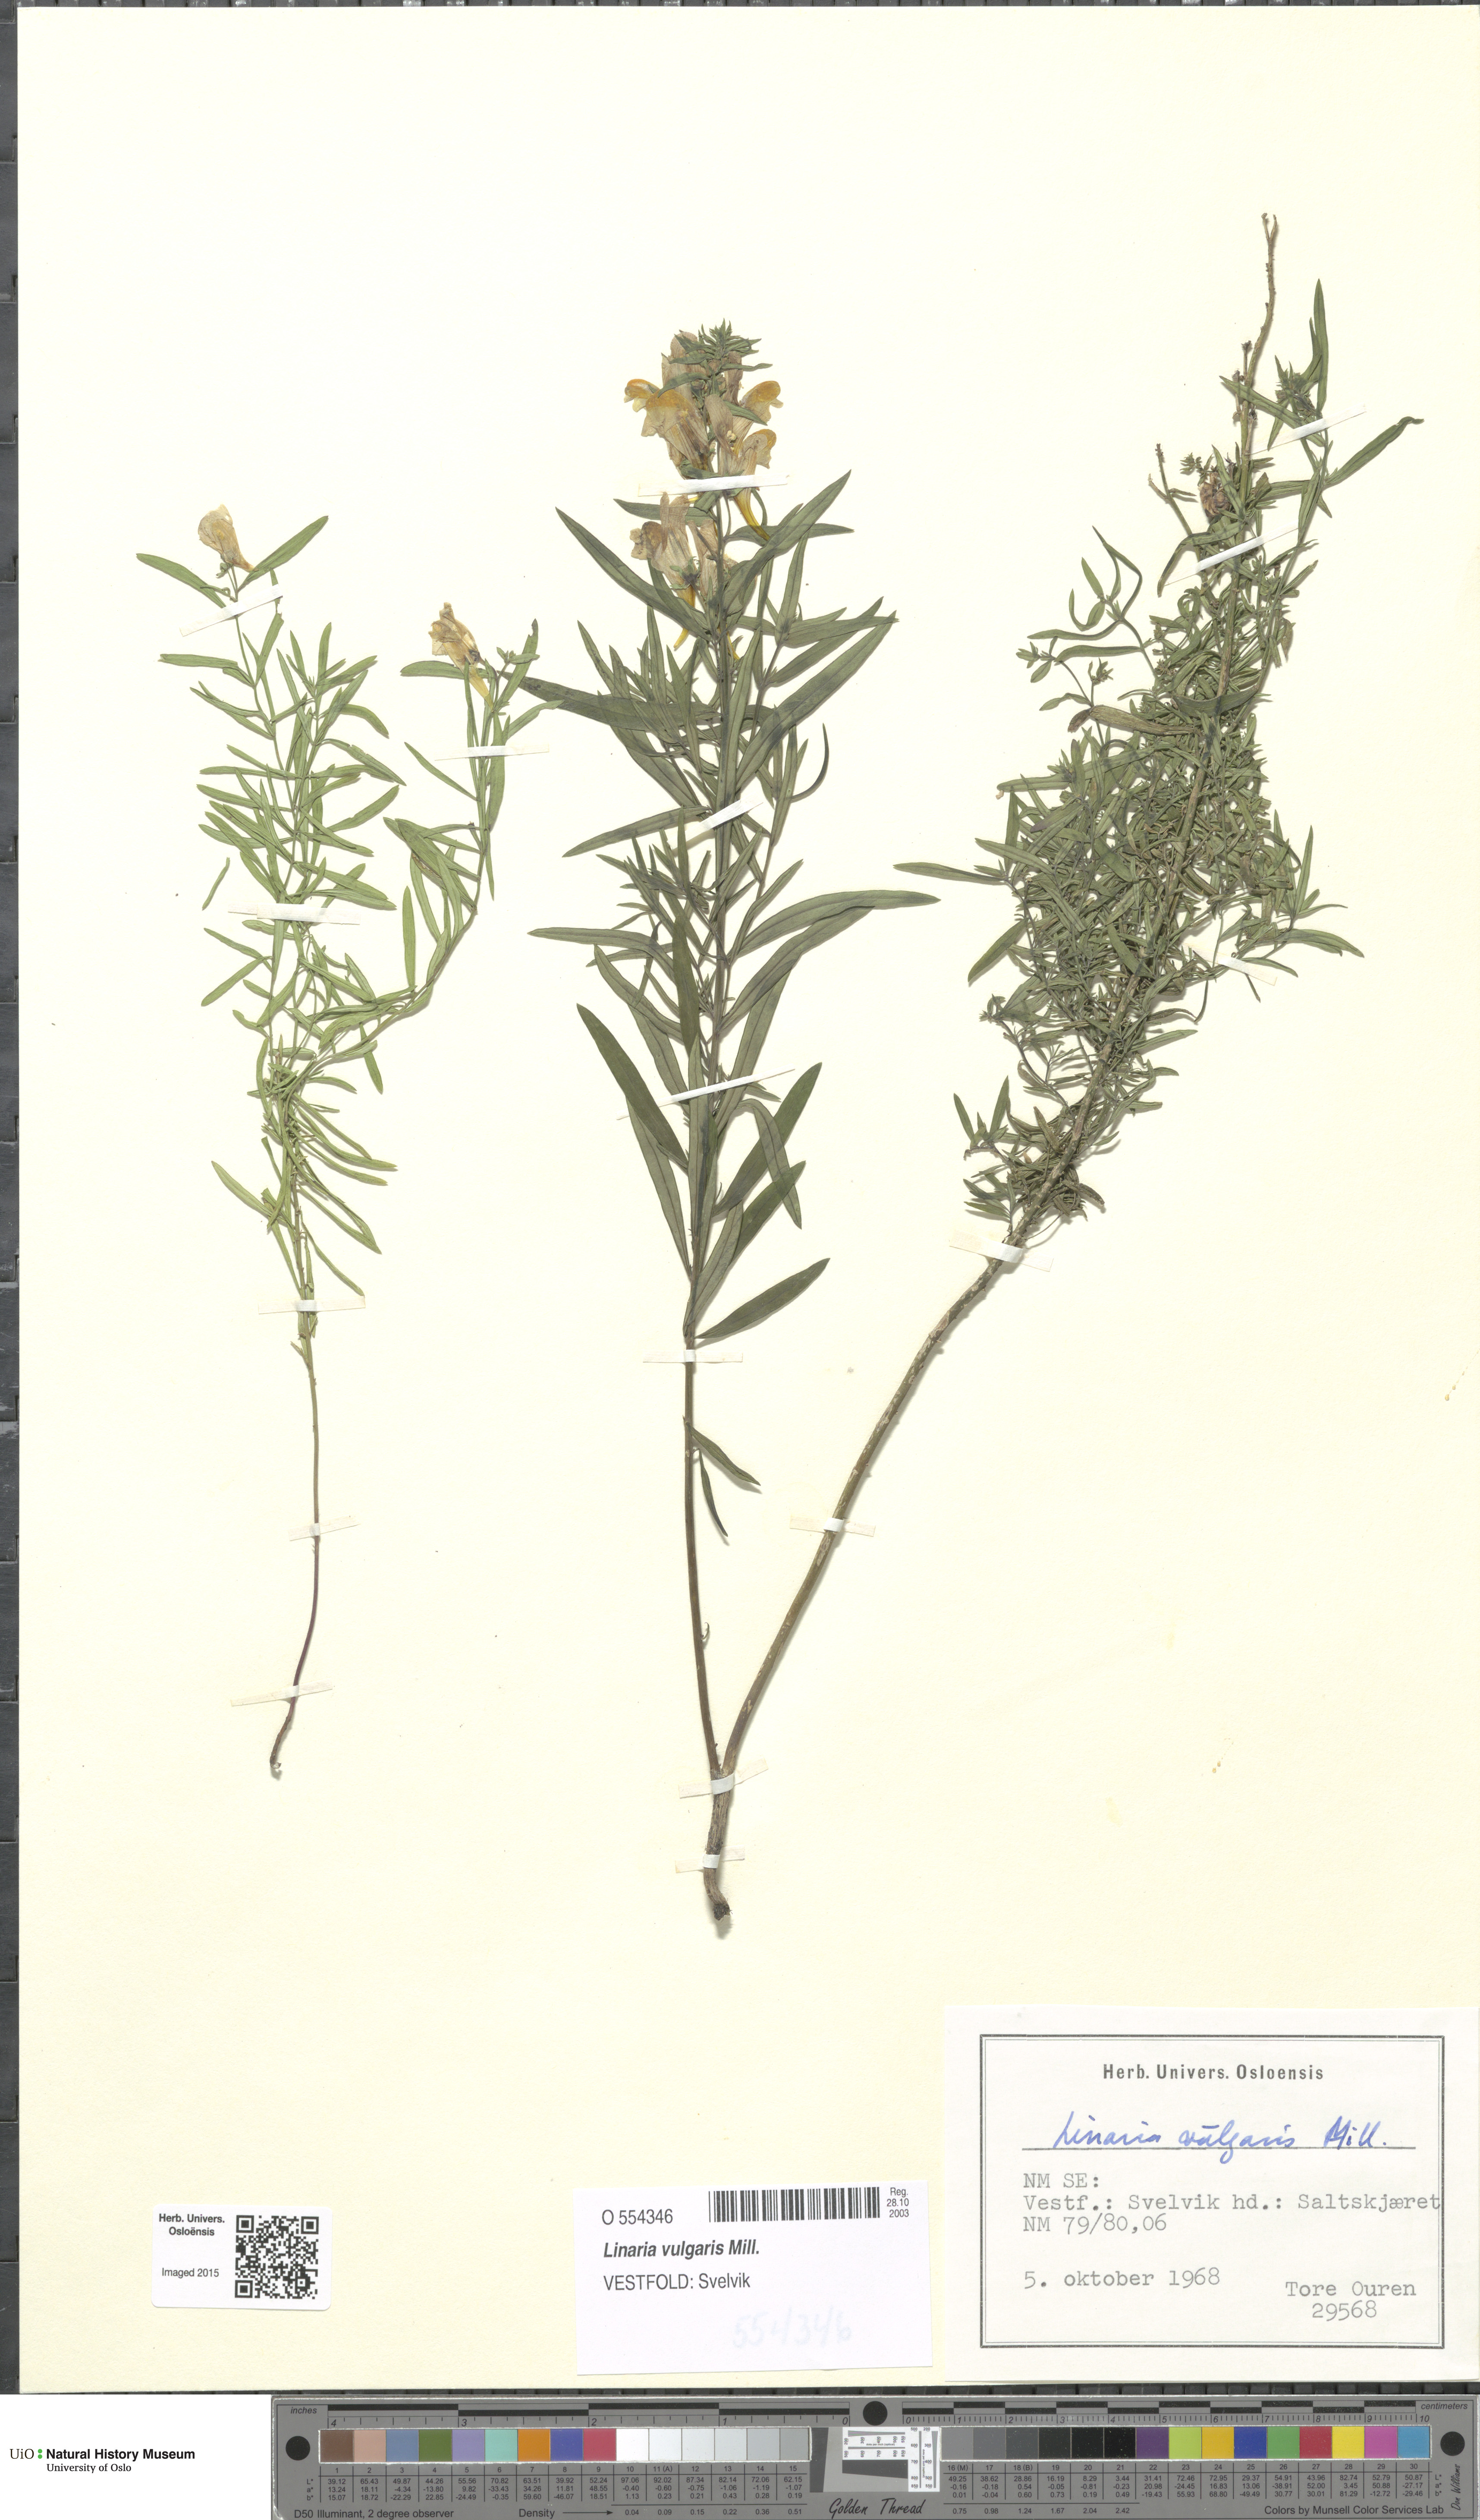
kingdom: Plantae
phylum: Tracheophyta
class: Magnoliopsida
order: Lamiales
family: Plantaginaceae
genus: Linaria
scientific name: Linaria vulgaris
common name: Butter and eggs
